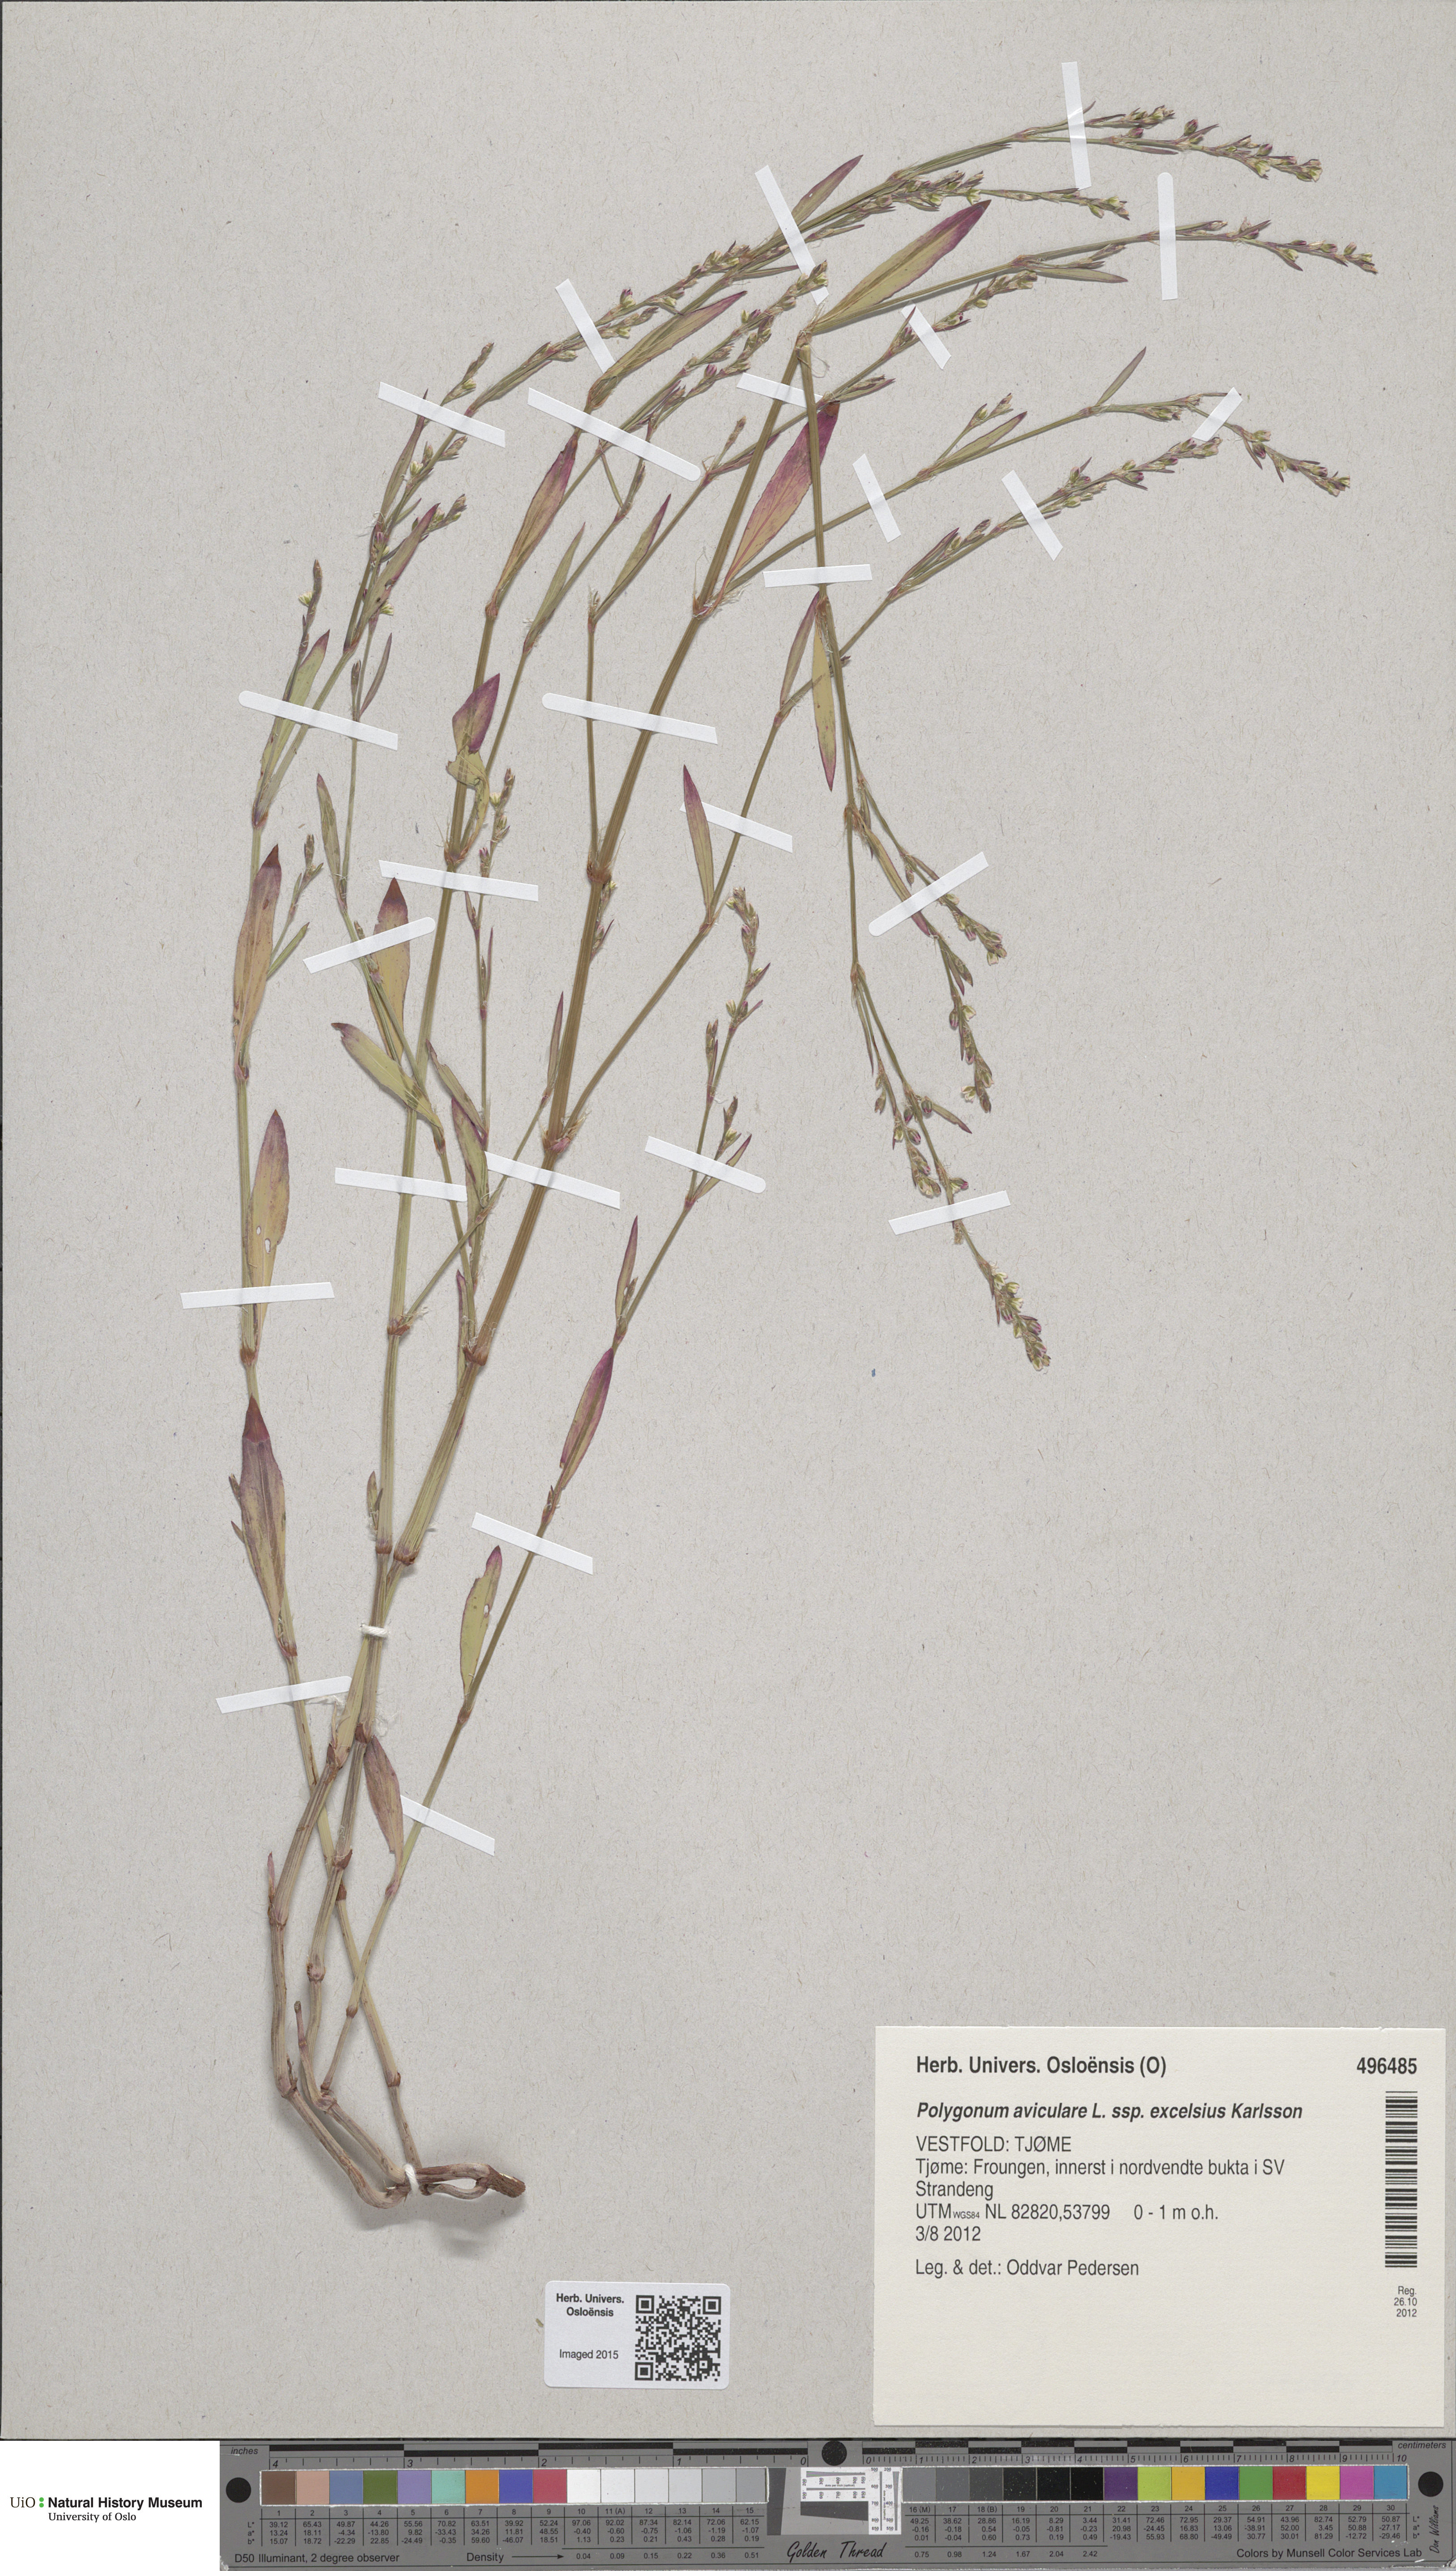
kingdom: Plantae
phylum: Tracheophyta
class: Magnoliopsida
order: Caryophyllales
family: Polygonaceae
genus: Polygonum
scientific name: Polygonum excelsius
